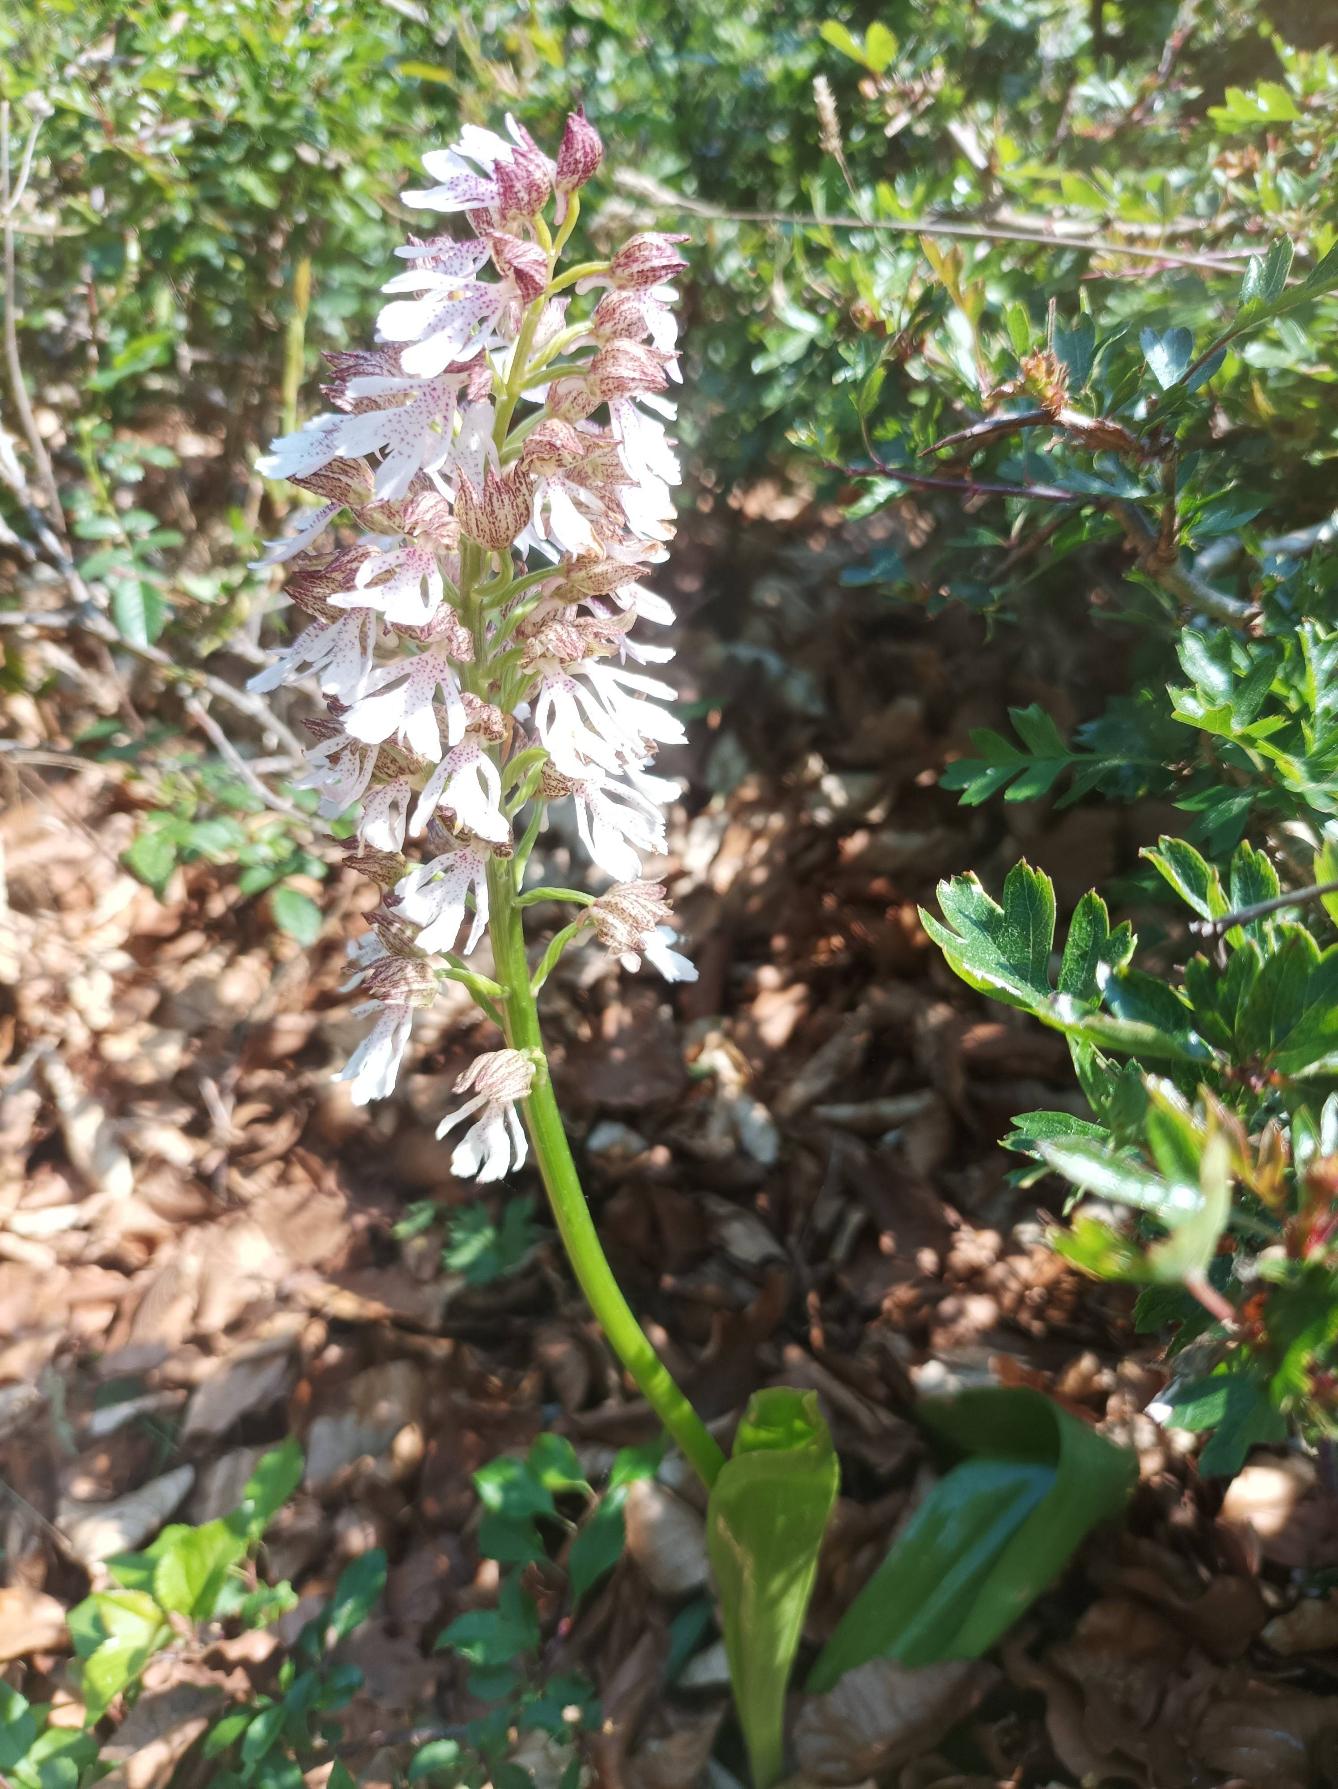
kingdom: Plantae
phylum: Tracheophyta
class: Liliopsida
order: Asparagales
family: Orchidaceae
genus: Orchis
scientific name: Orchis purpurea
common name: Stor gøgeurt
